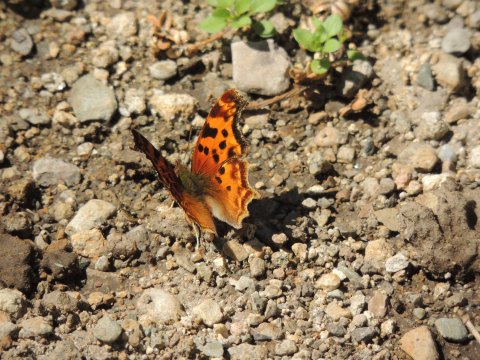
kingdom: Animalia
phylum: Arthropoda
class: Insecta
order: Lepidoptera
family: Nymphalidae
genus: Polygonia
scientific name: Polygonia satyrus
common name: Satyr Comma
